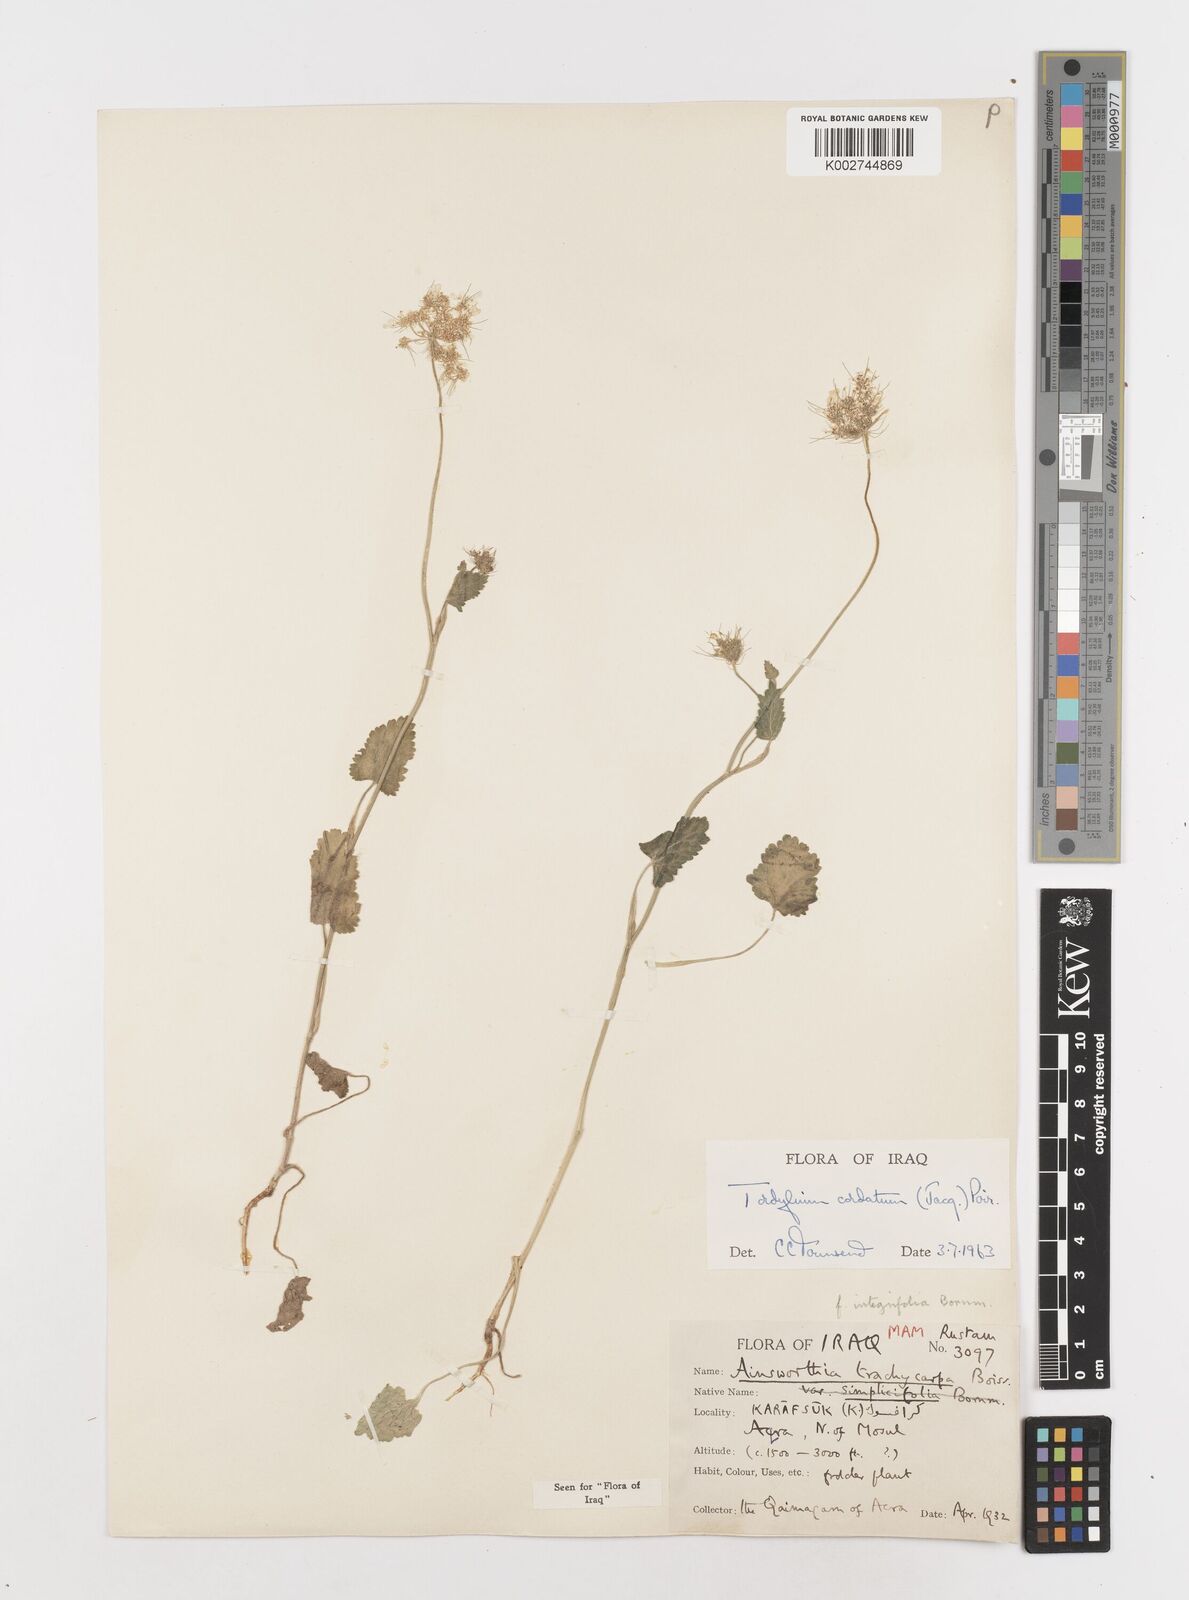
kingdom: Plantae
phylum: Tracheophyta
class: Magnoliopsida
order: Apiales
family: Apiaceae
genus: Ainsworthia
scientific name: Ainsworthia trachycarpa
